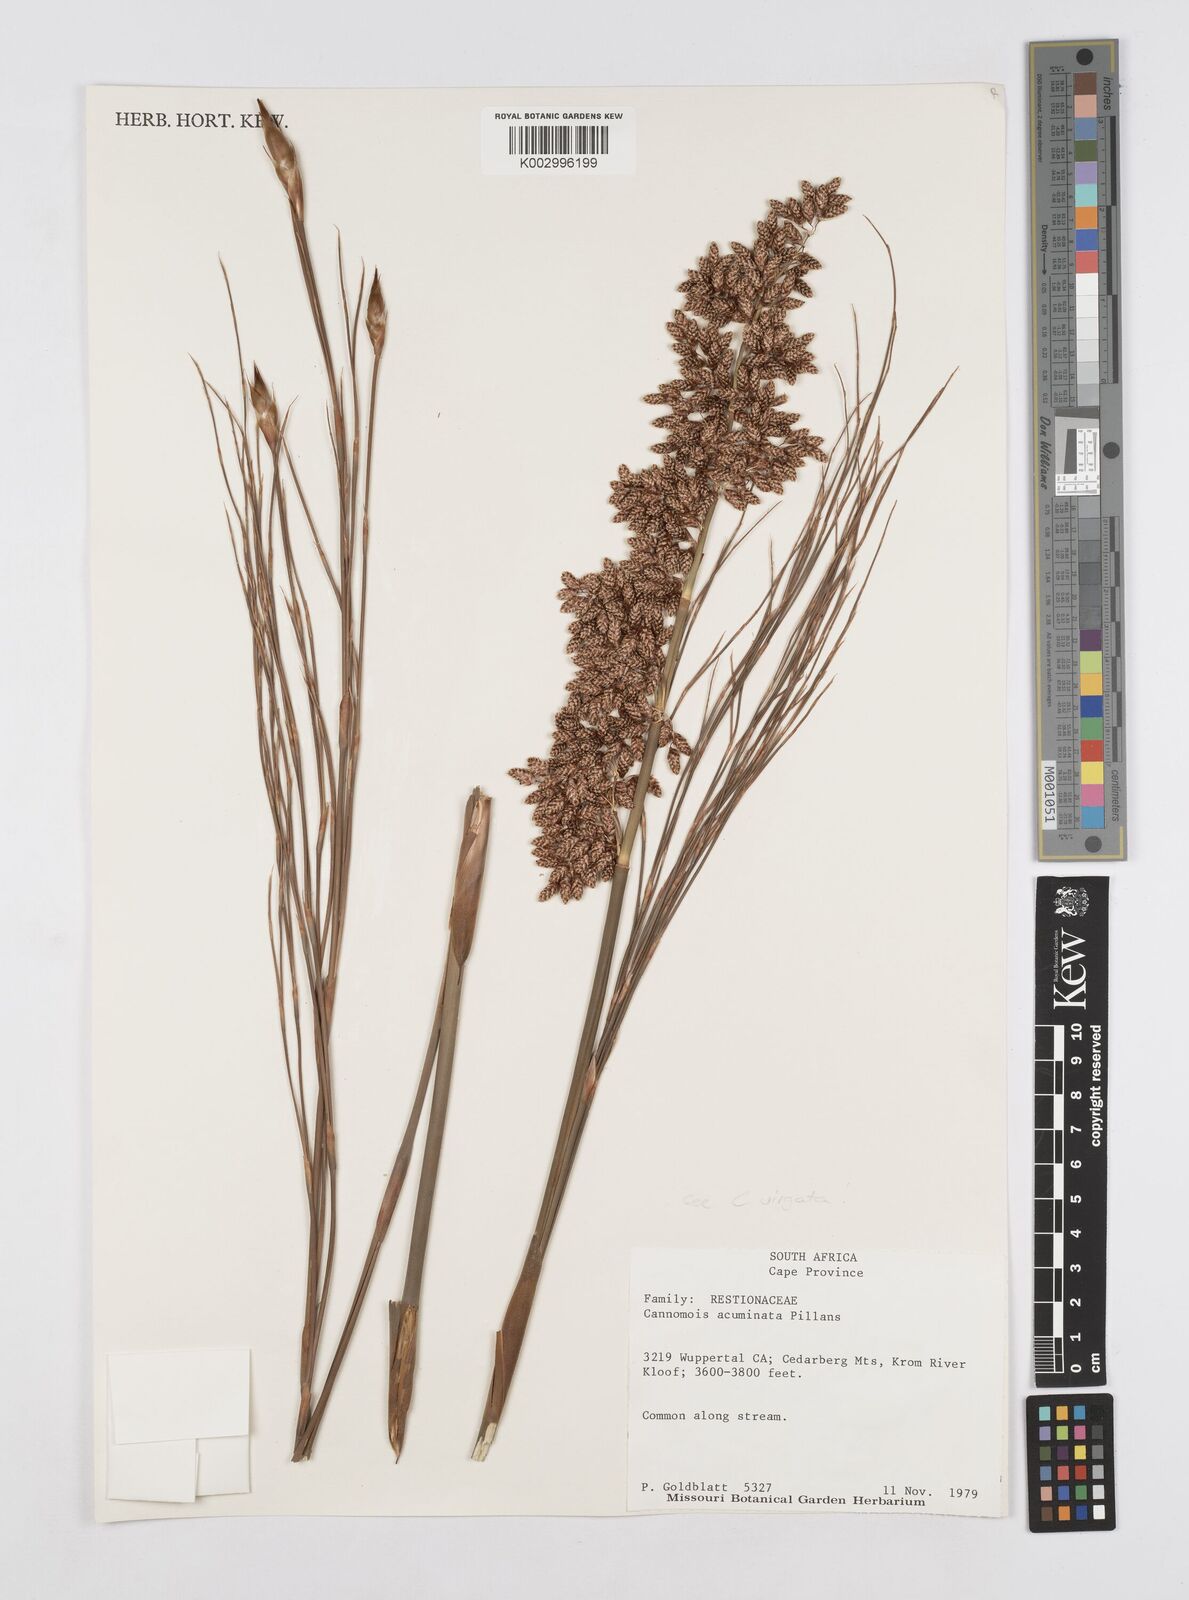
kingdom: Plantae
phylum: Tracheophyta
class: Liliopsida
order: Poales
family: Restionaceae
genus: Cannomois
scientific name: Cannomois virgata
